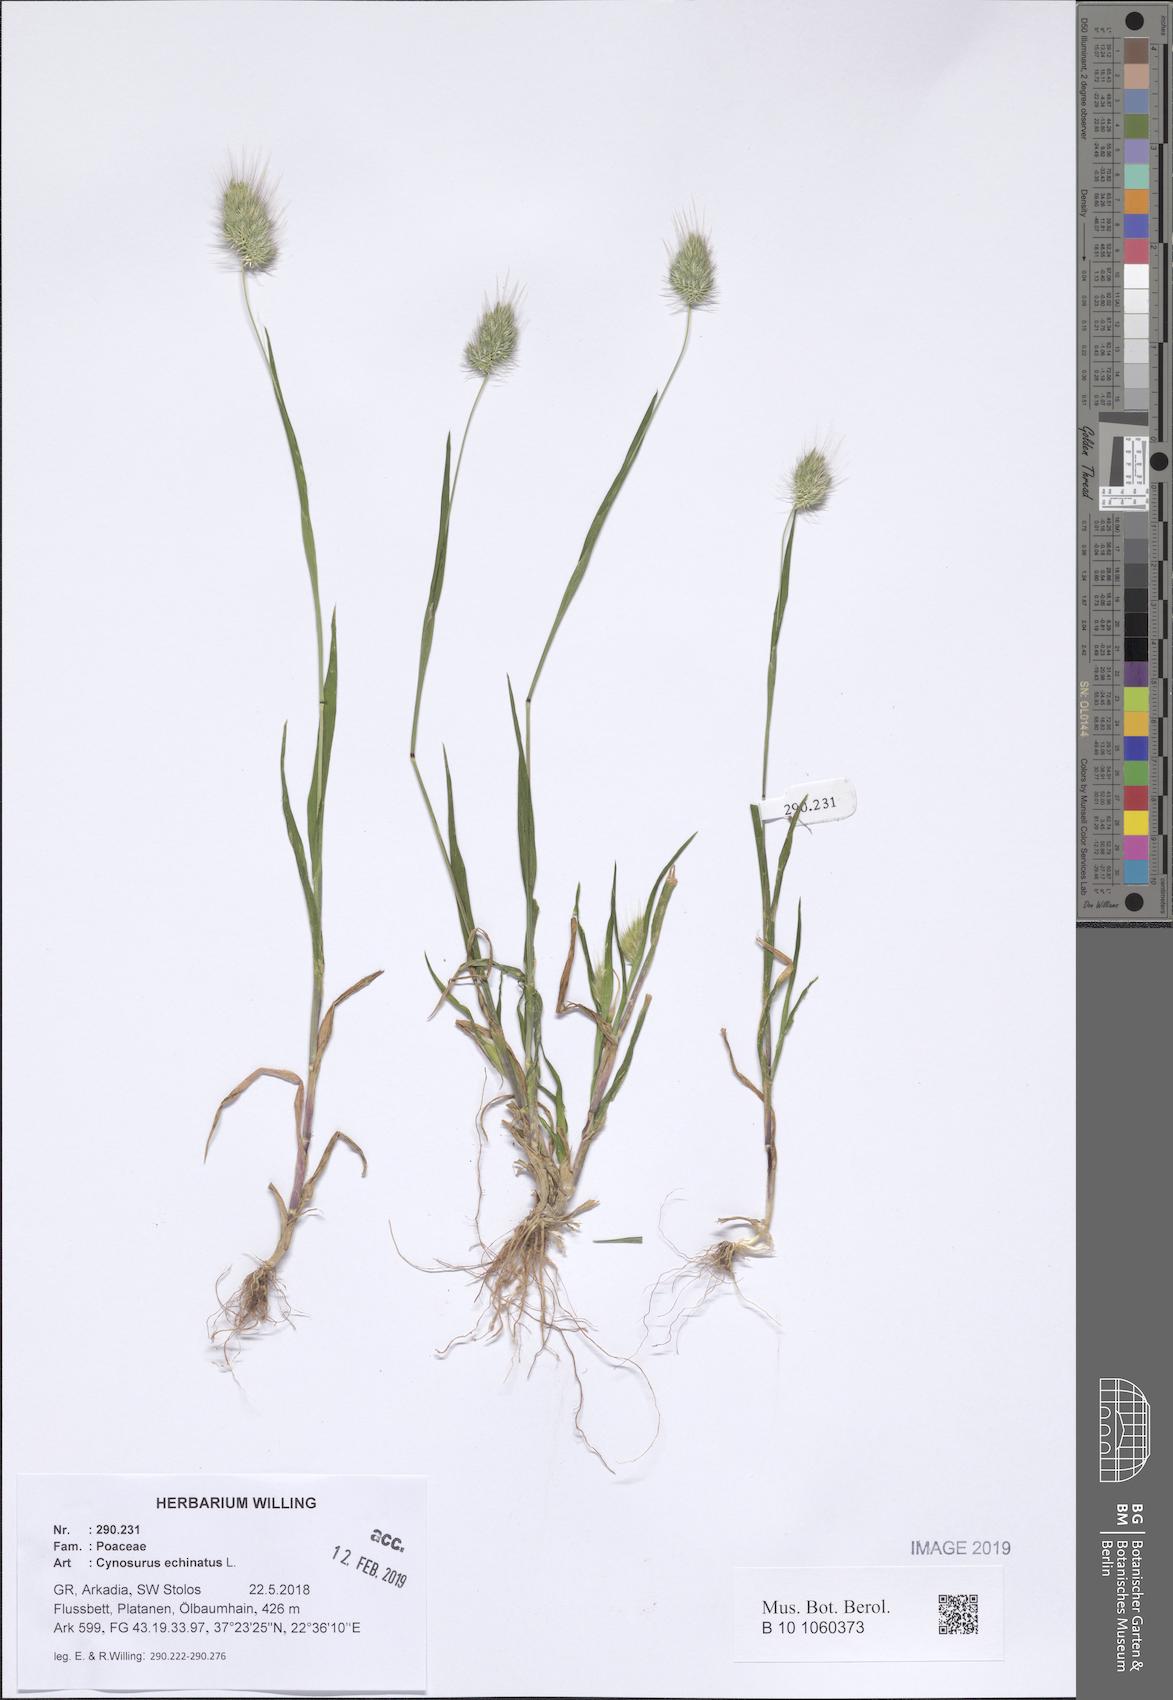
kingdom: Plantae
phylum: Tracheophyta
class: Liliopsida
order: Poales
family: Poaceae
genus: Cynosurus
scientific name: Cynosurus echinatus
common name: Rough dog's-tail
